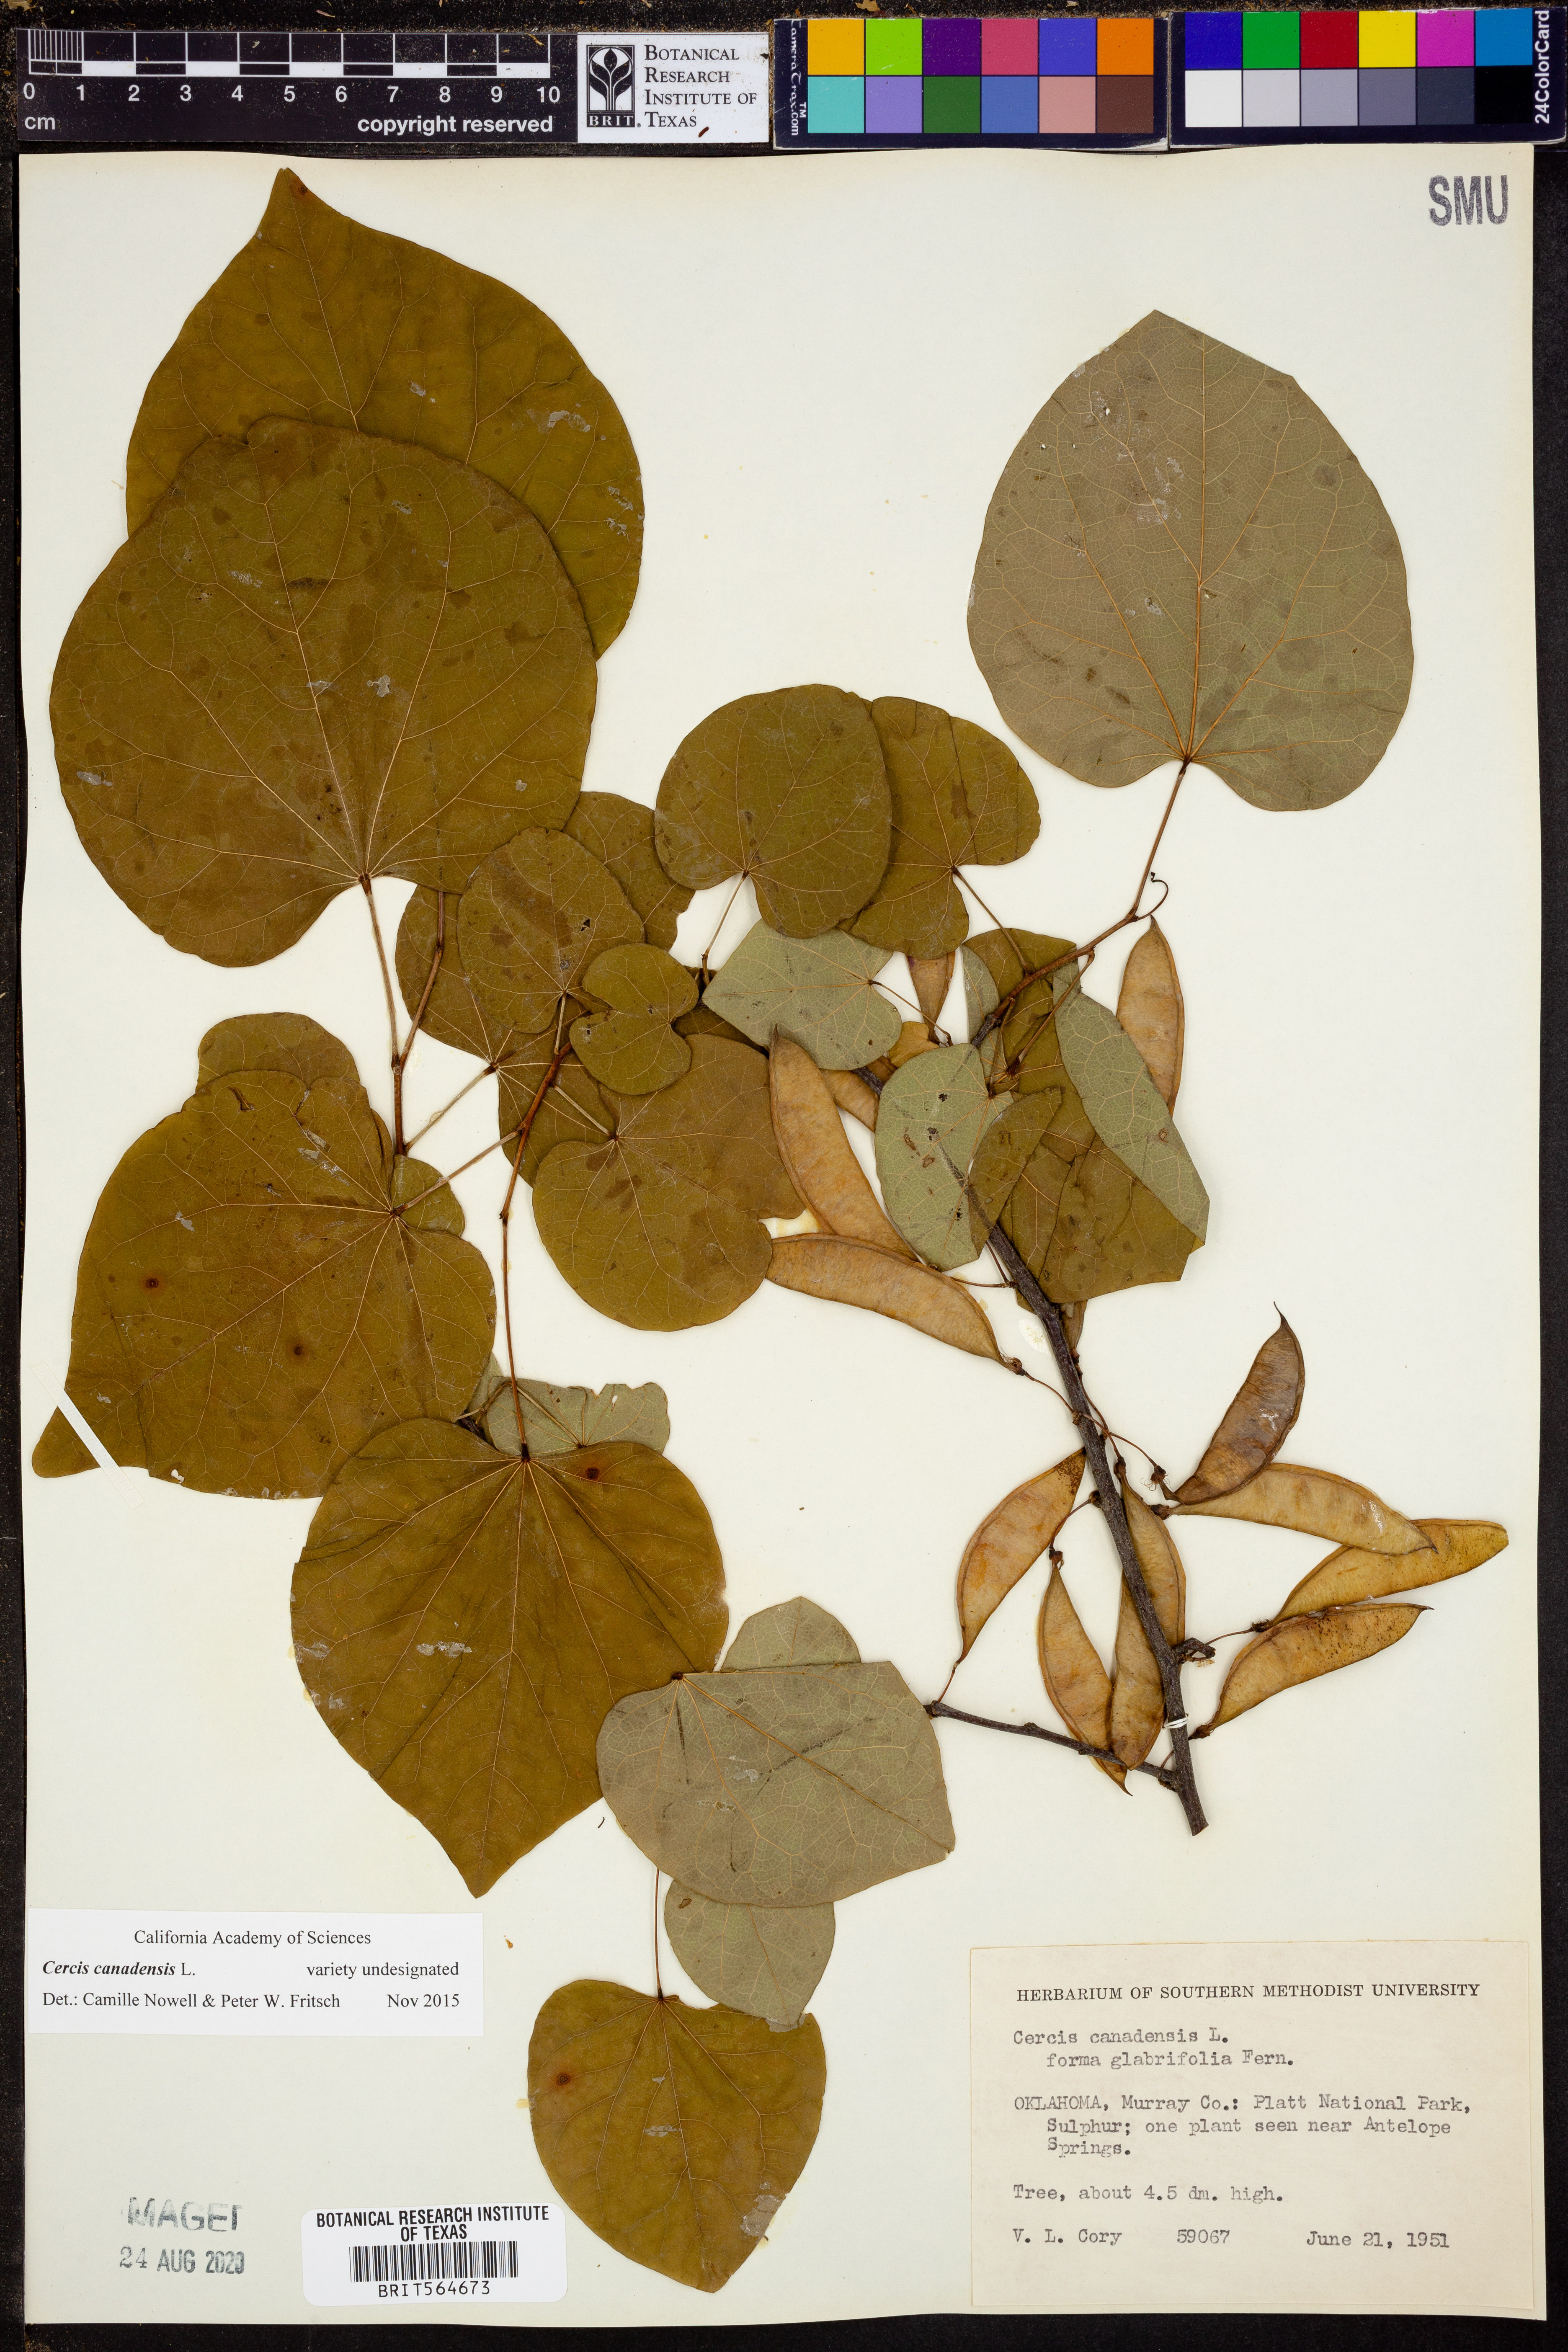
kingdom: Plantae
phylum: Tracheophyta
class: Magnoliopsida
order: Fabales
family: Fabaceae
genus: Cercis
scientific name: Cercis canadensis
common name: Eastern redbud
